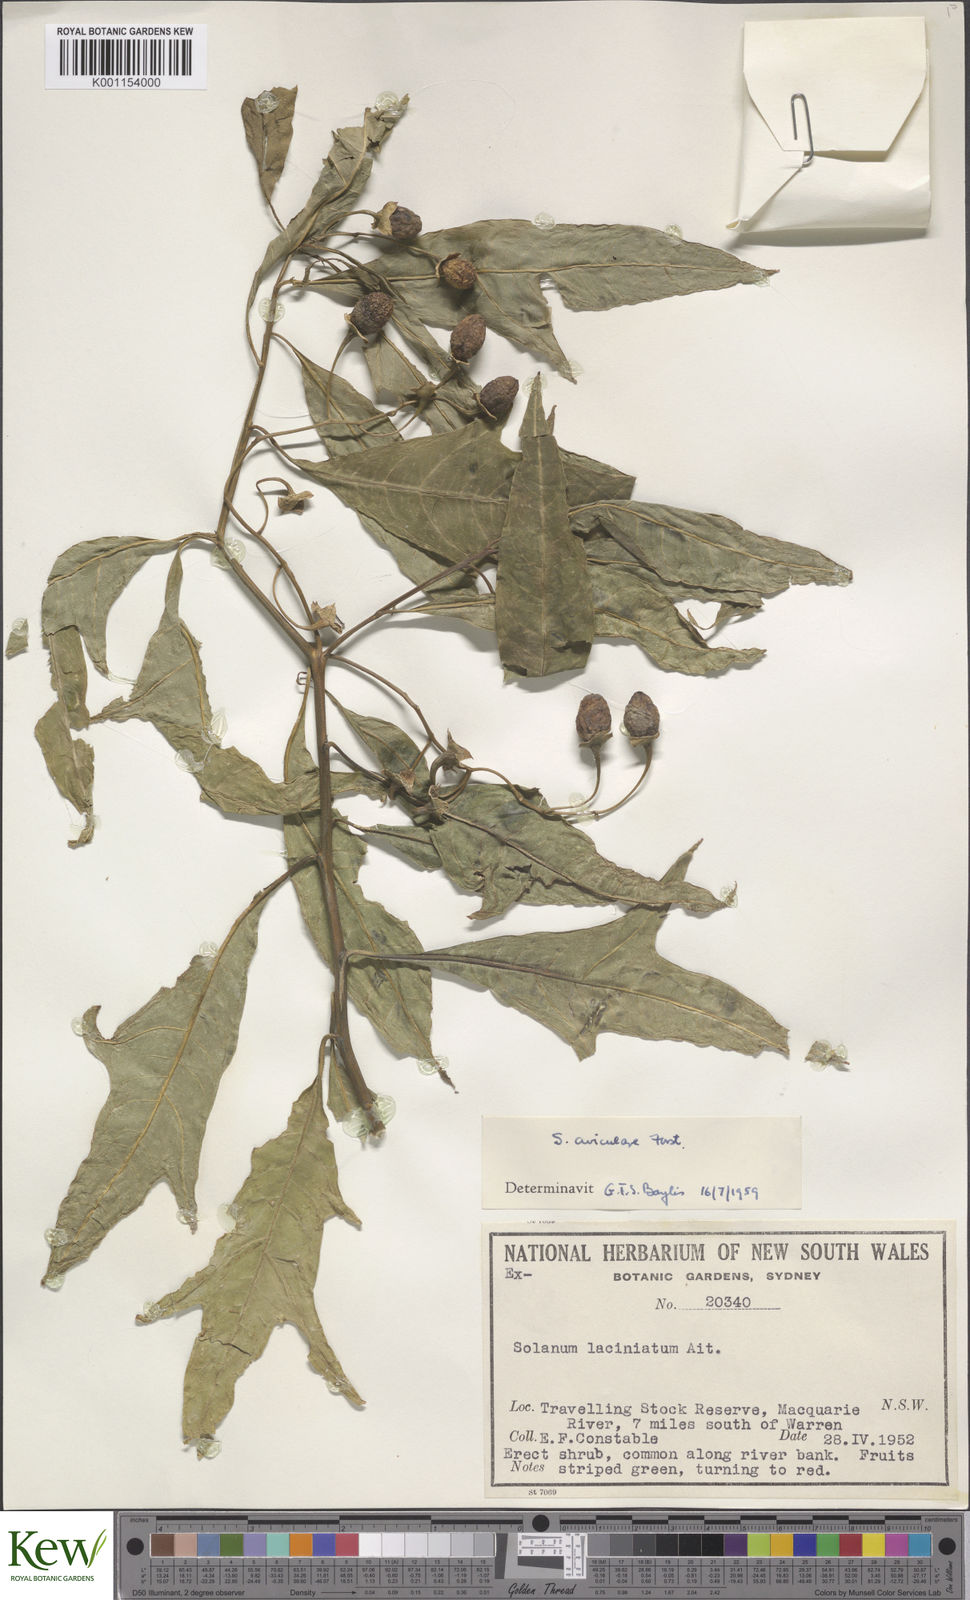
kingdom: Plantae
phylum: Tracheophyta
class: Magnoliopsida
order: Solanales
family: Solanaceae
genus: Solanum
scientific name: Solanum aviculare
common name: New zealand nightshade
